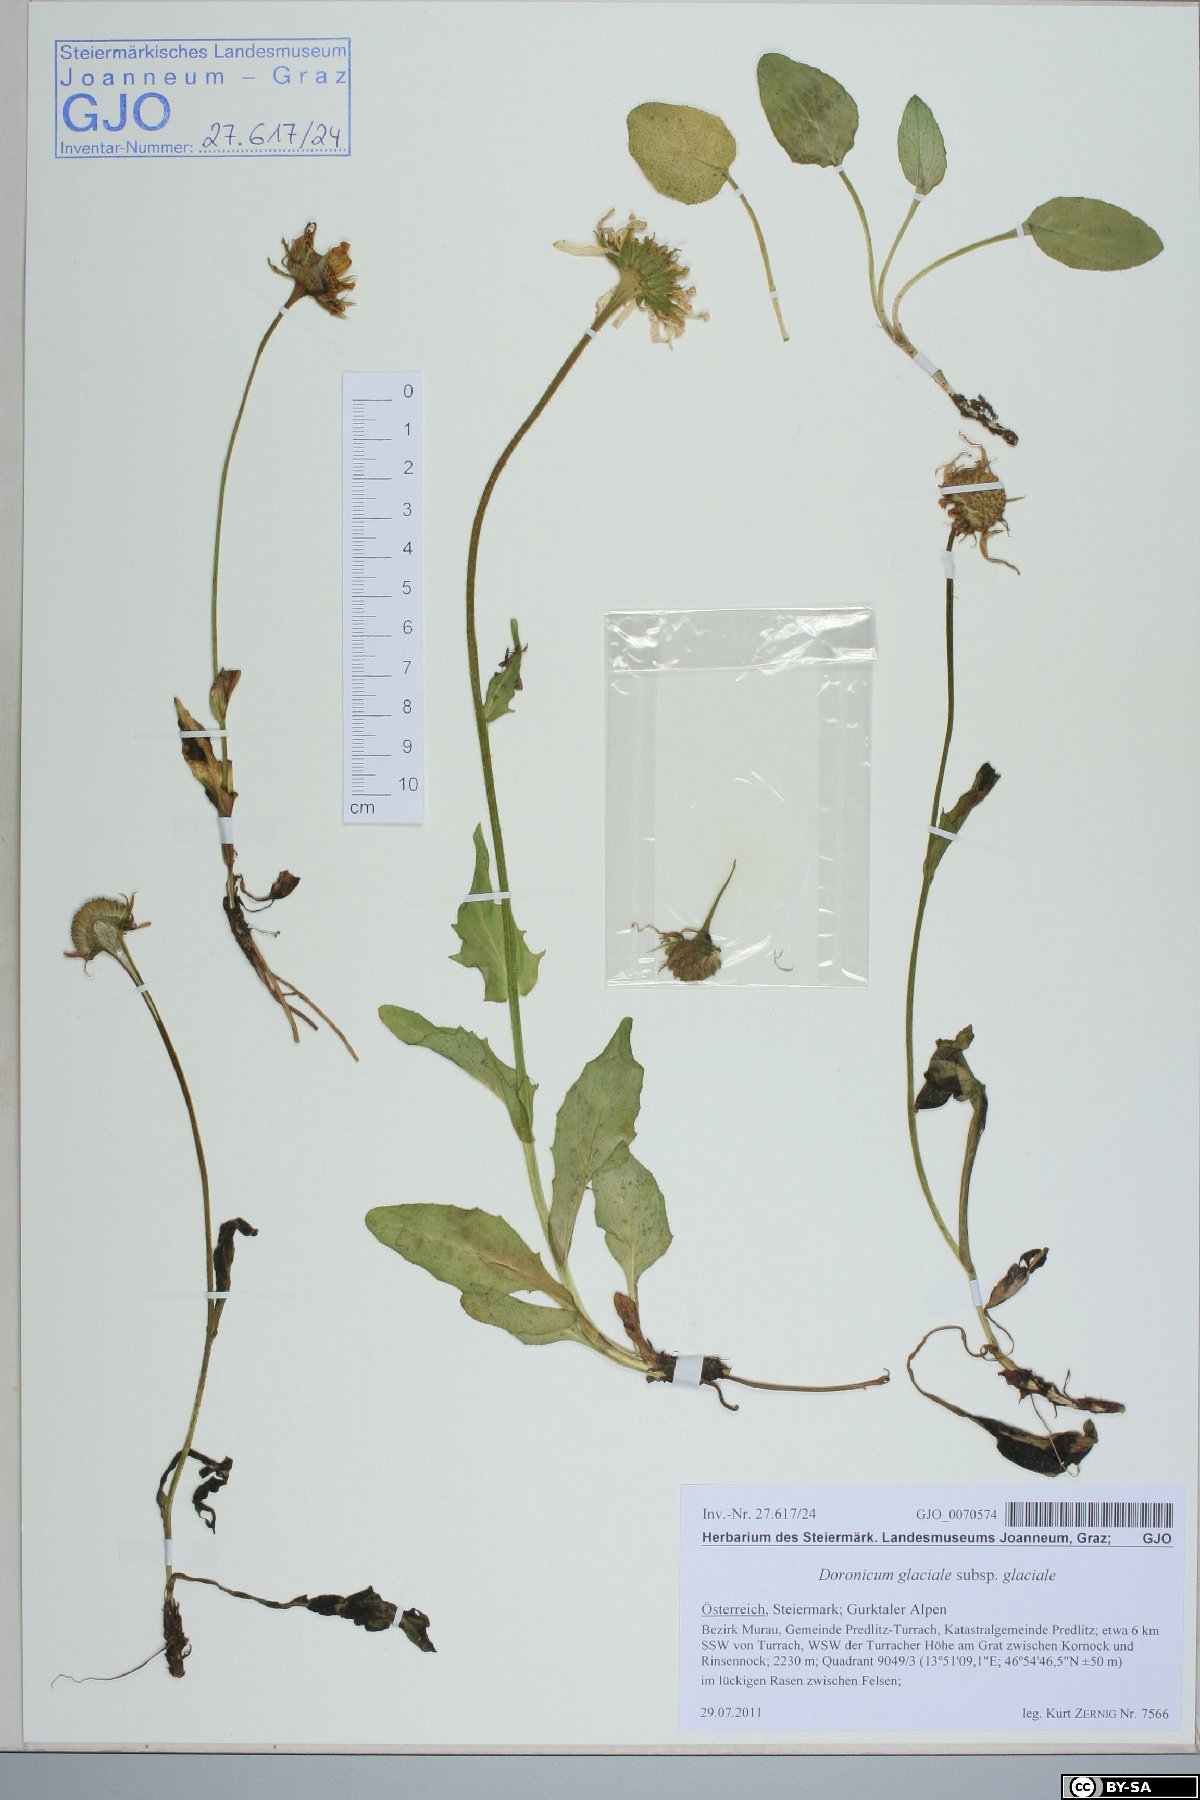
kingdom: Plantae
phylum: Tracheophyta
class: Magnoliopsida
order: Asterales
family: Asteraceae
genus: Doronicum
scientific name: Doronicum glaciale
